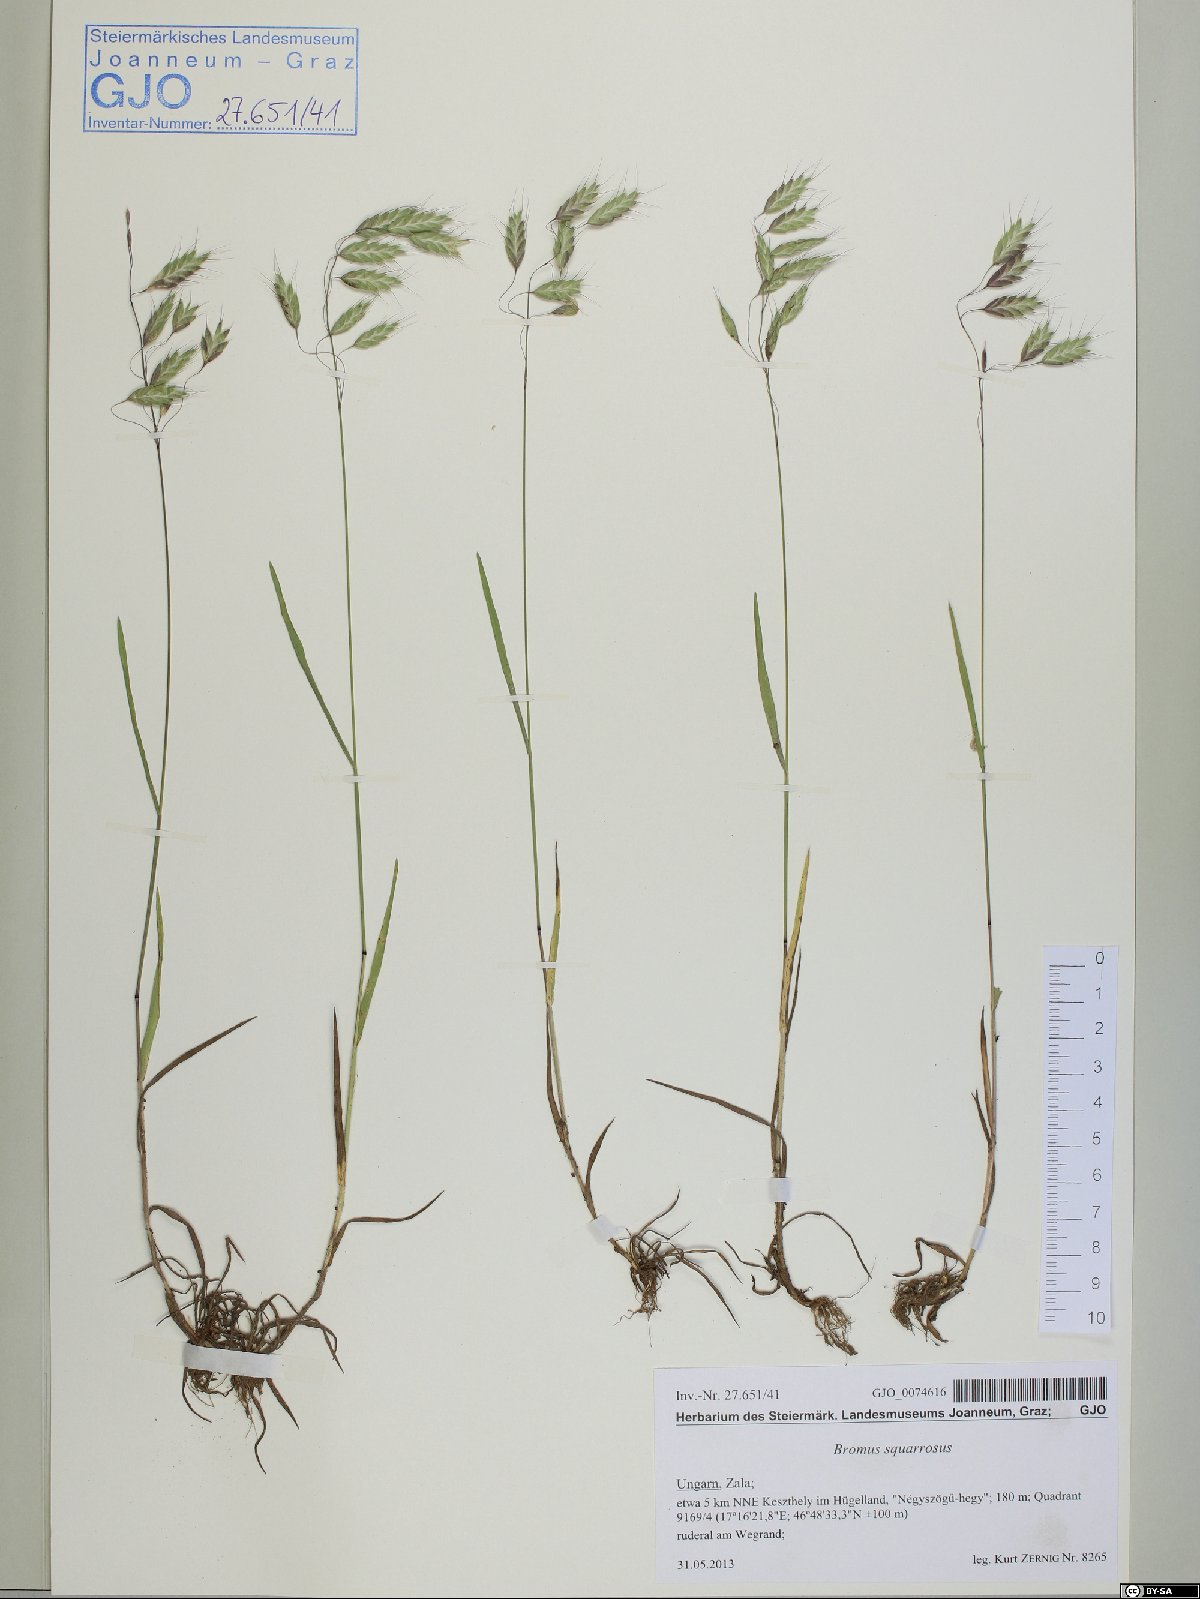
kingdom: Plantae
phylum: Tracheophyta
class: Liliopsida
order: Poales
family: Poaceae
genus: Bromus
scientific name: Bromus squarrosus
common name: Corn brome
